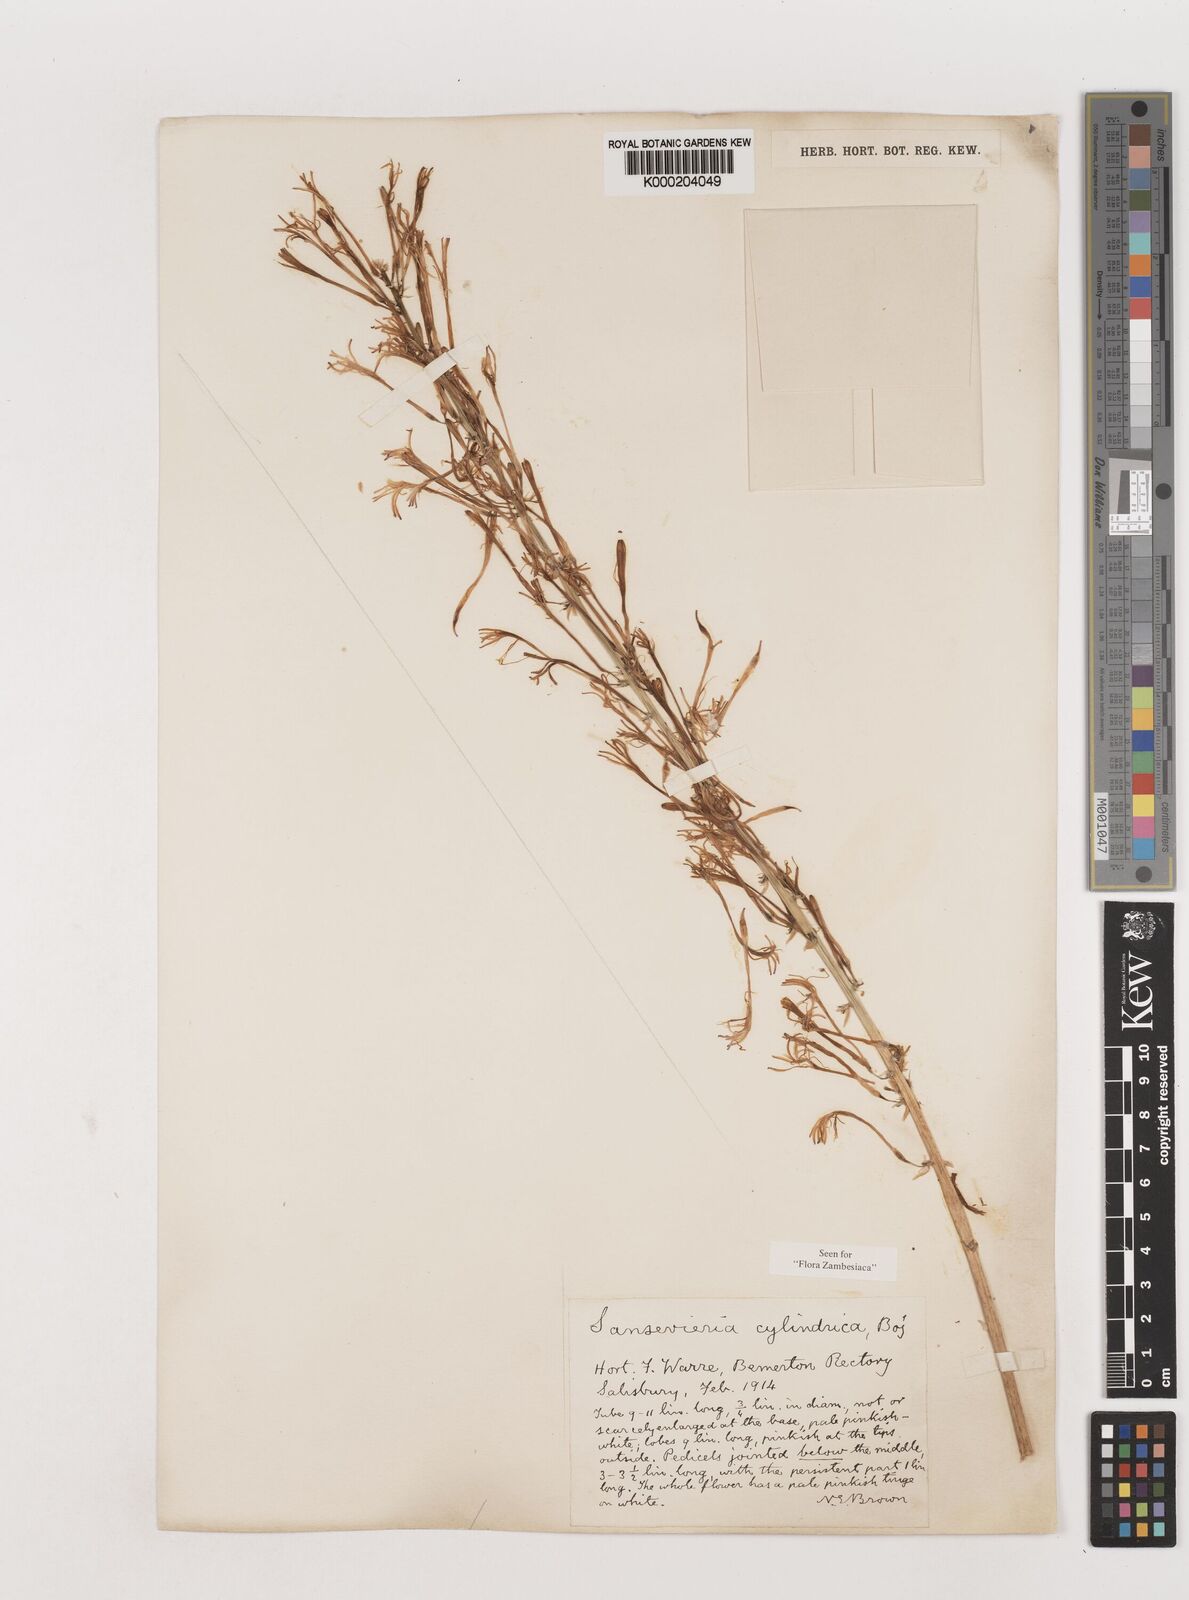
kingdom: Plantae
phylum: Tracheophyta
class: Liliopsida
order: Asparagales
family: Asparagaceae
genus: Dracaena
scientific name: Dracaena angolensis
